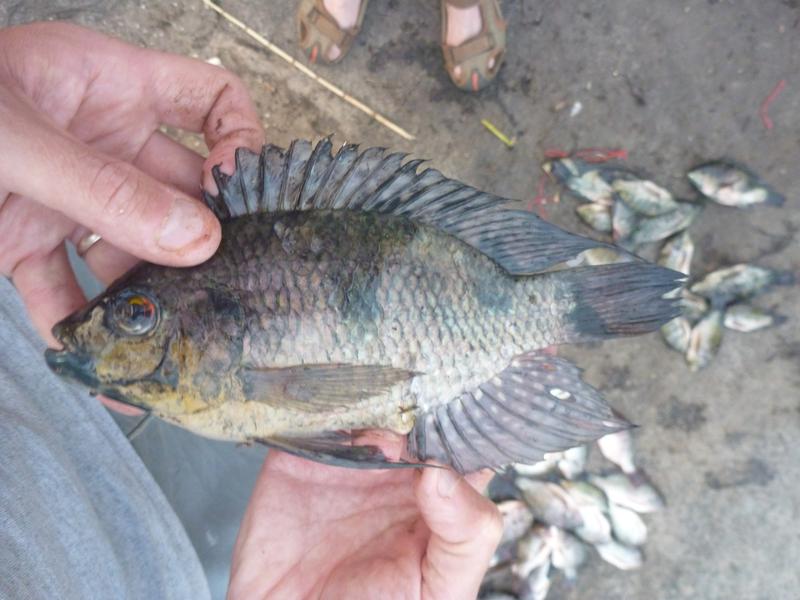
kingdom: Animalia
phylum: Chordata
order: Perciformes
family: Cichlidae
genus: Oreochromis
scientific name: Oreochromis leucostictus
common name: Blue spotted tilapia
